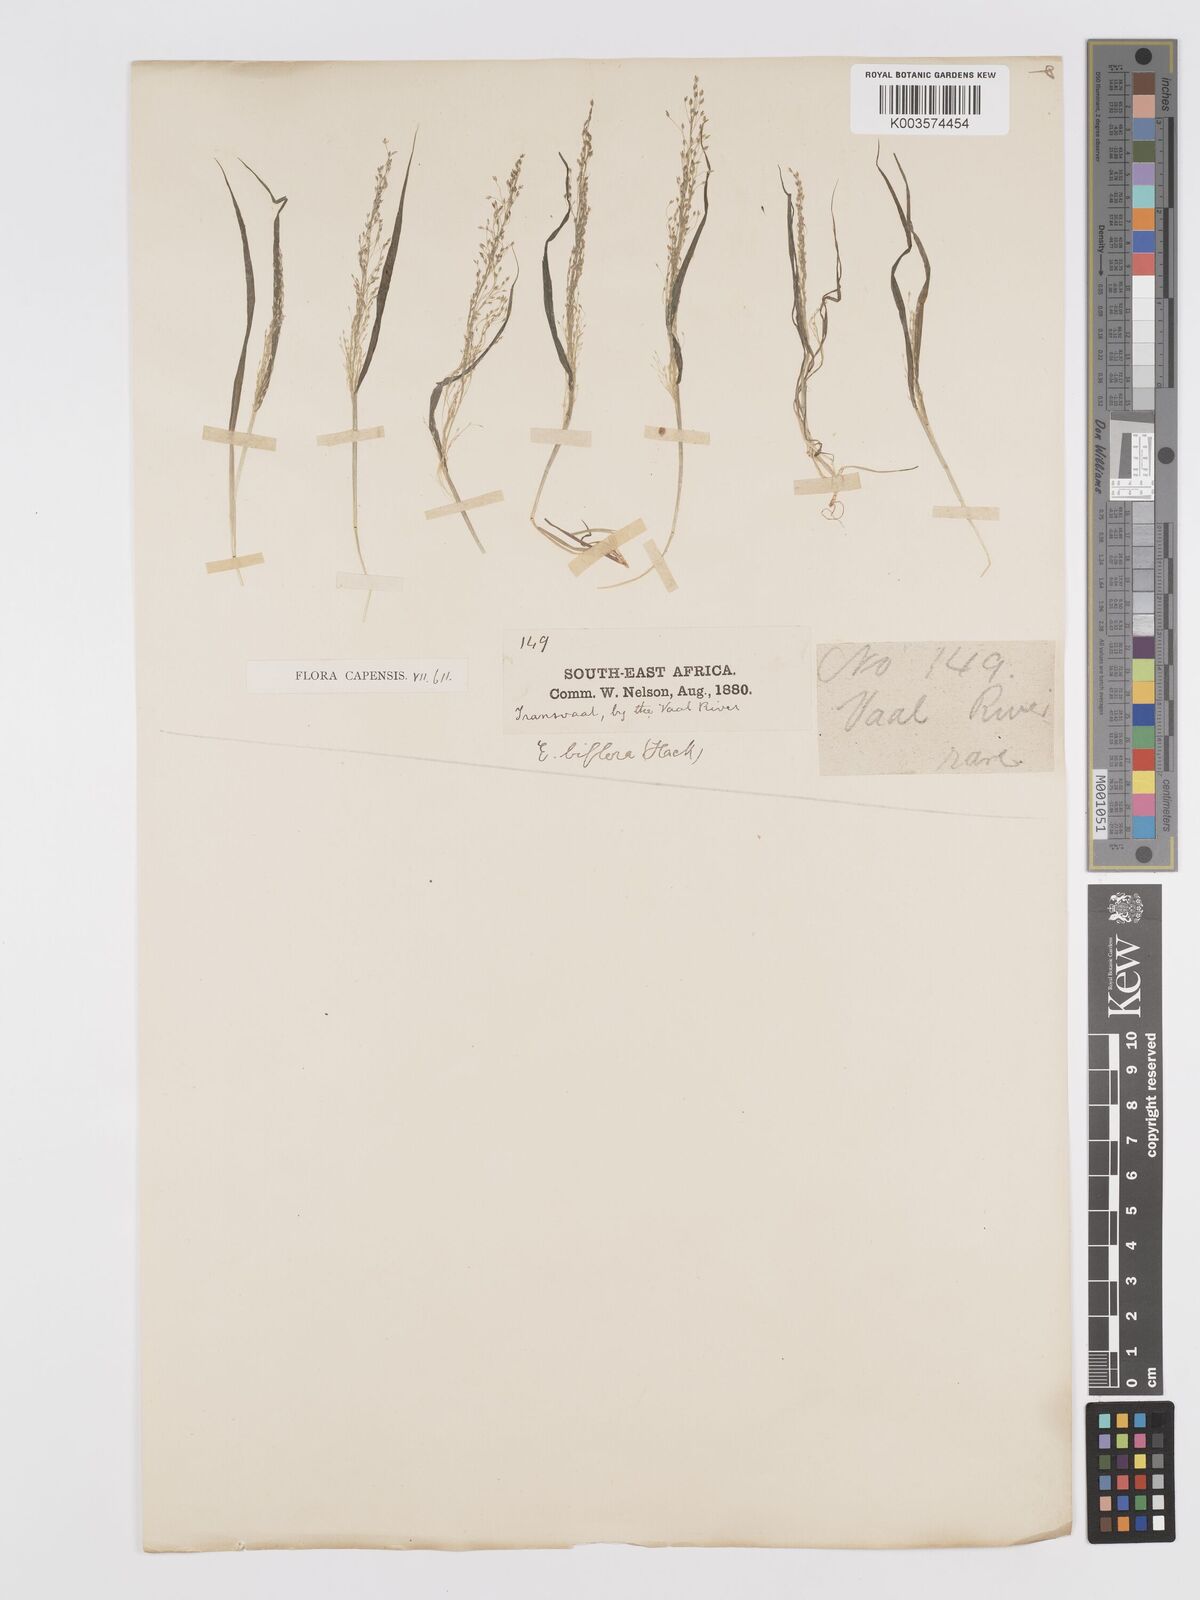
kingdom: Plantae
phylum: Tracheophyta
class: Liliopsida
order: Poales
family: Poaceae
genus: Eragrostis
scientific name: Eragrostis biflora
